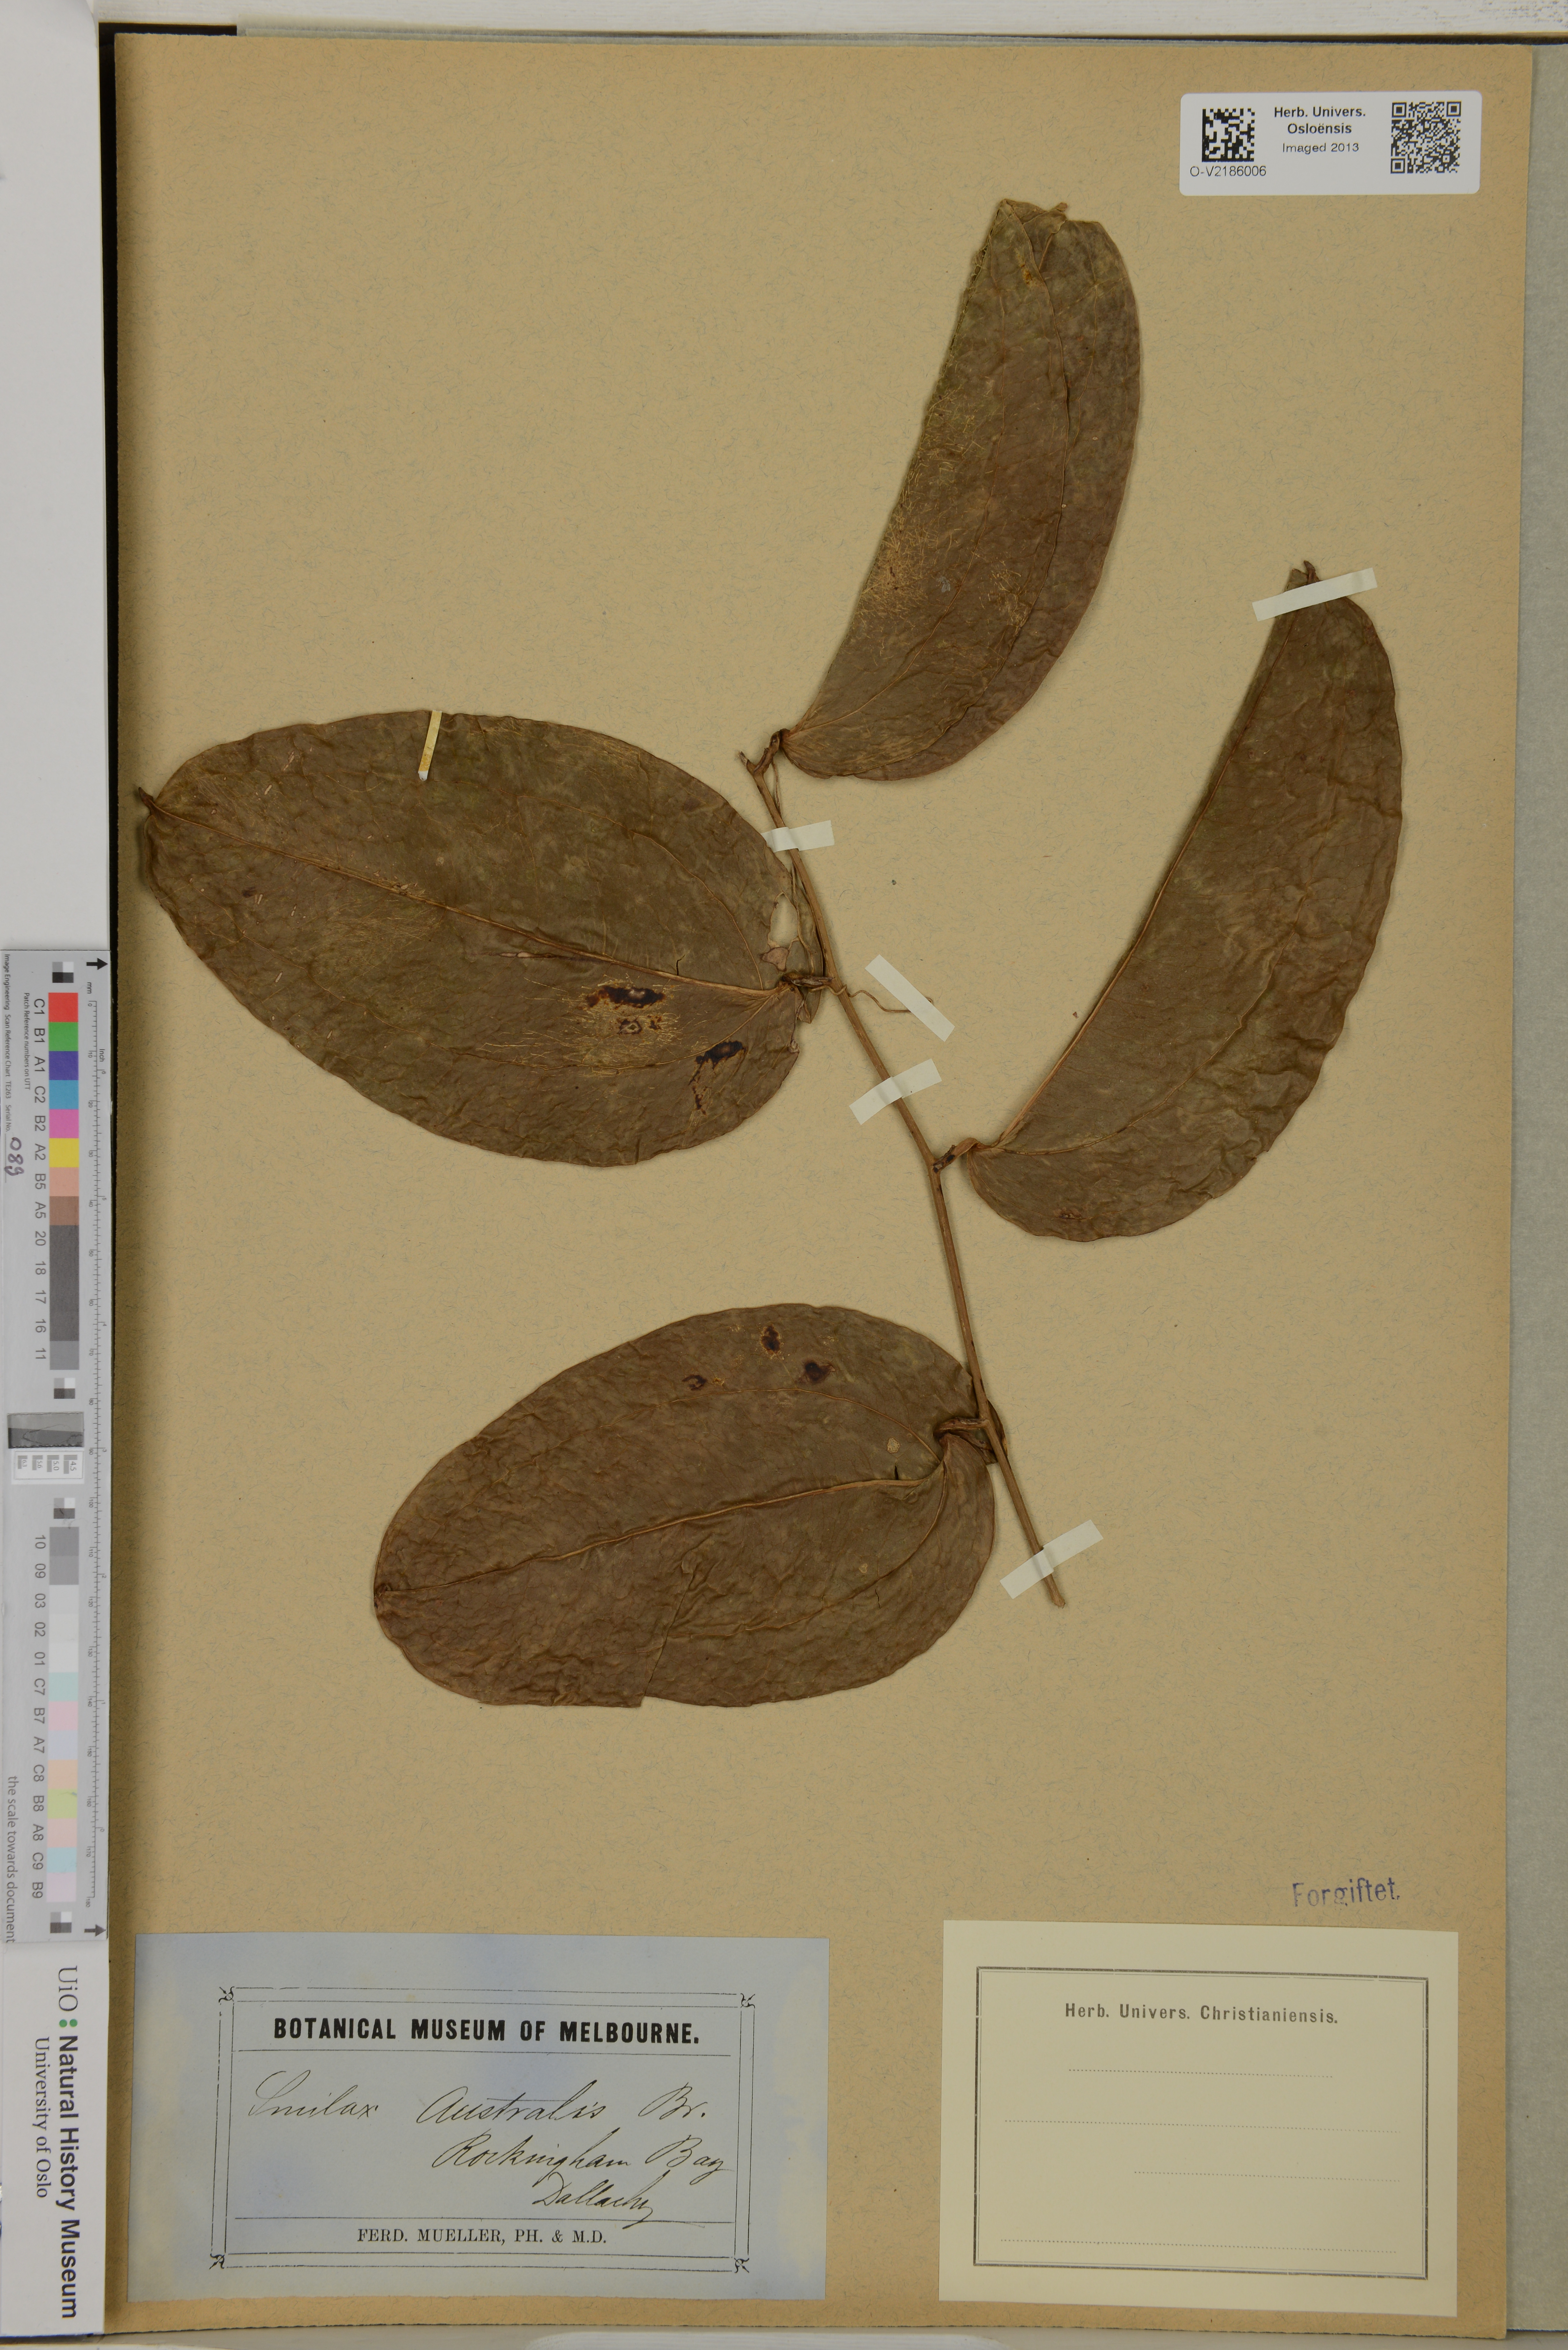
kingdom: Plantae
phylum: Tracheophyta
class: Liliopsida
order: Liliales
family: Smilacaceae
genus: Smilax
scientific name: Smilax australis
